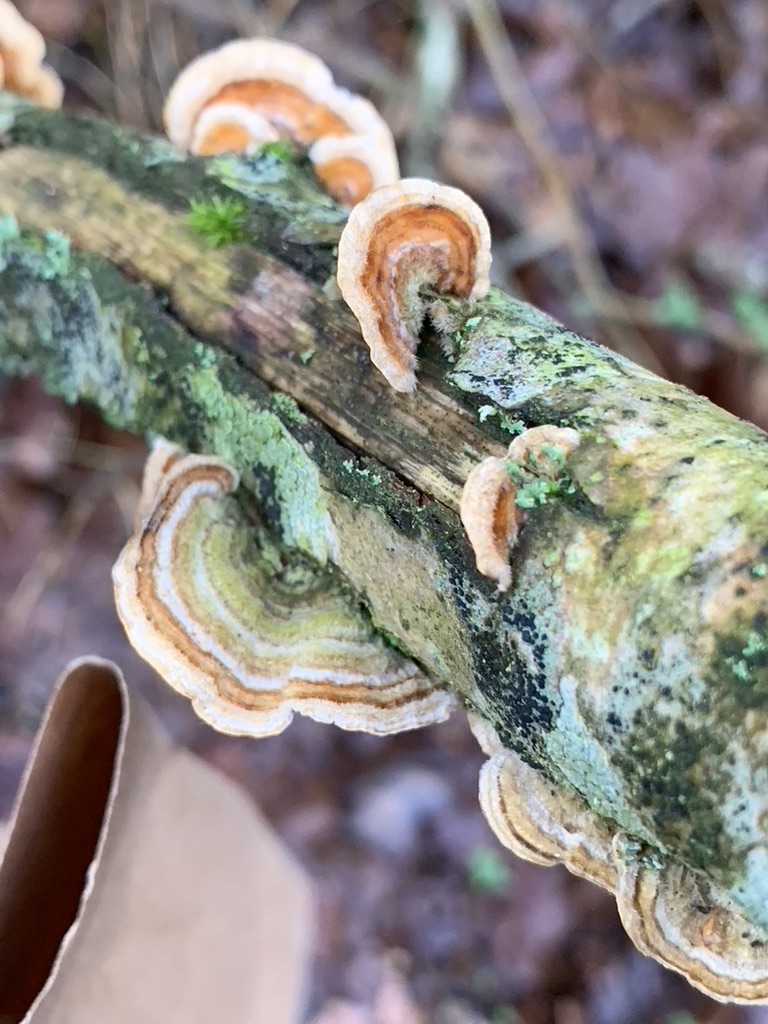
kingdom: Fungi
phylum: Basidiomycota
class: Agaricomycetes
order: Russulales
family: Stereaceae
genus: Stereum
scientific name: Stereum subtomentosum
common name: smuk lædersvamp
